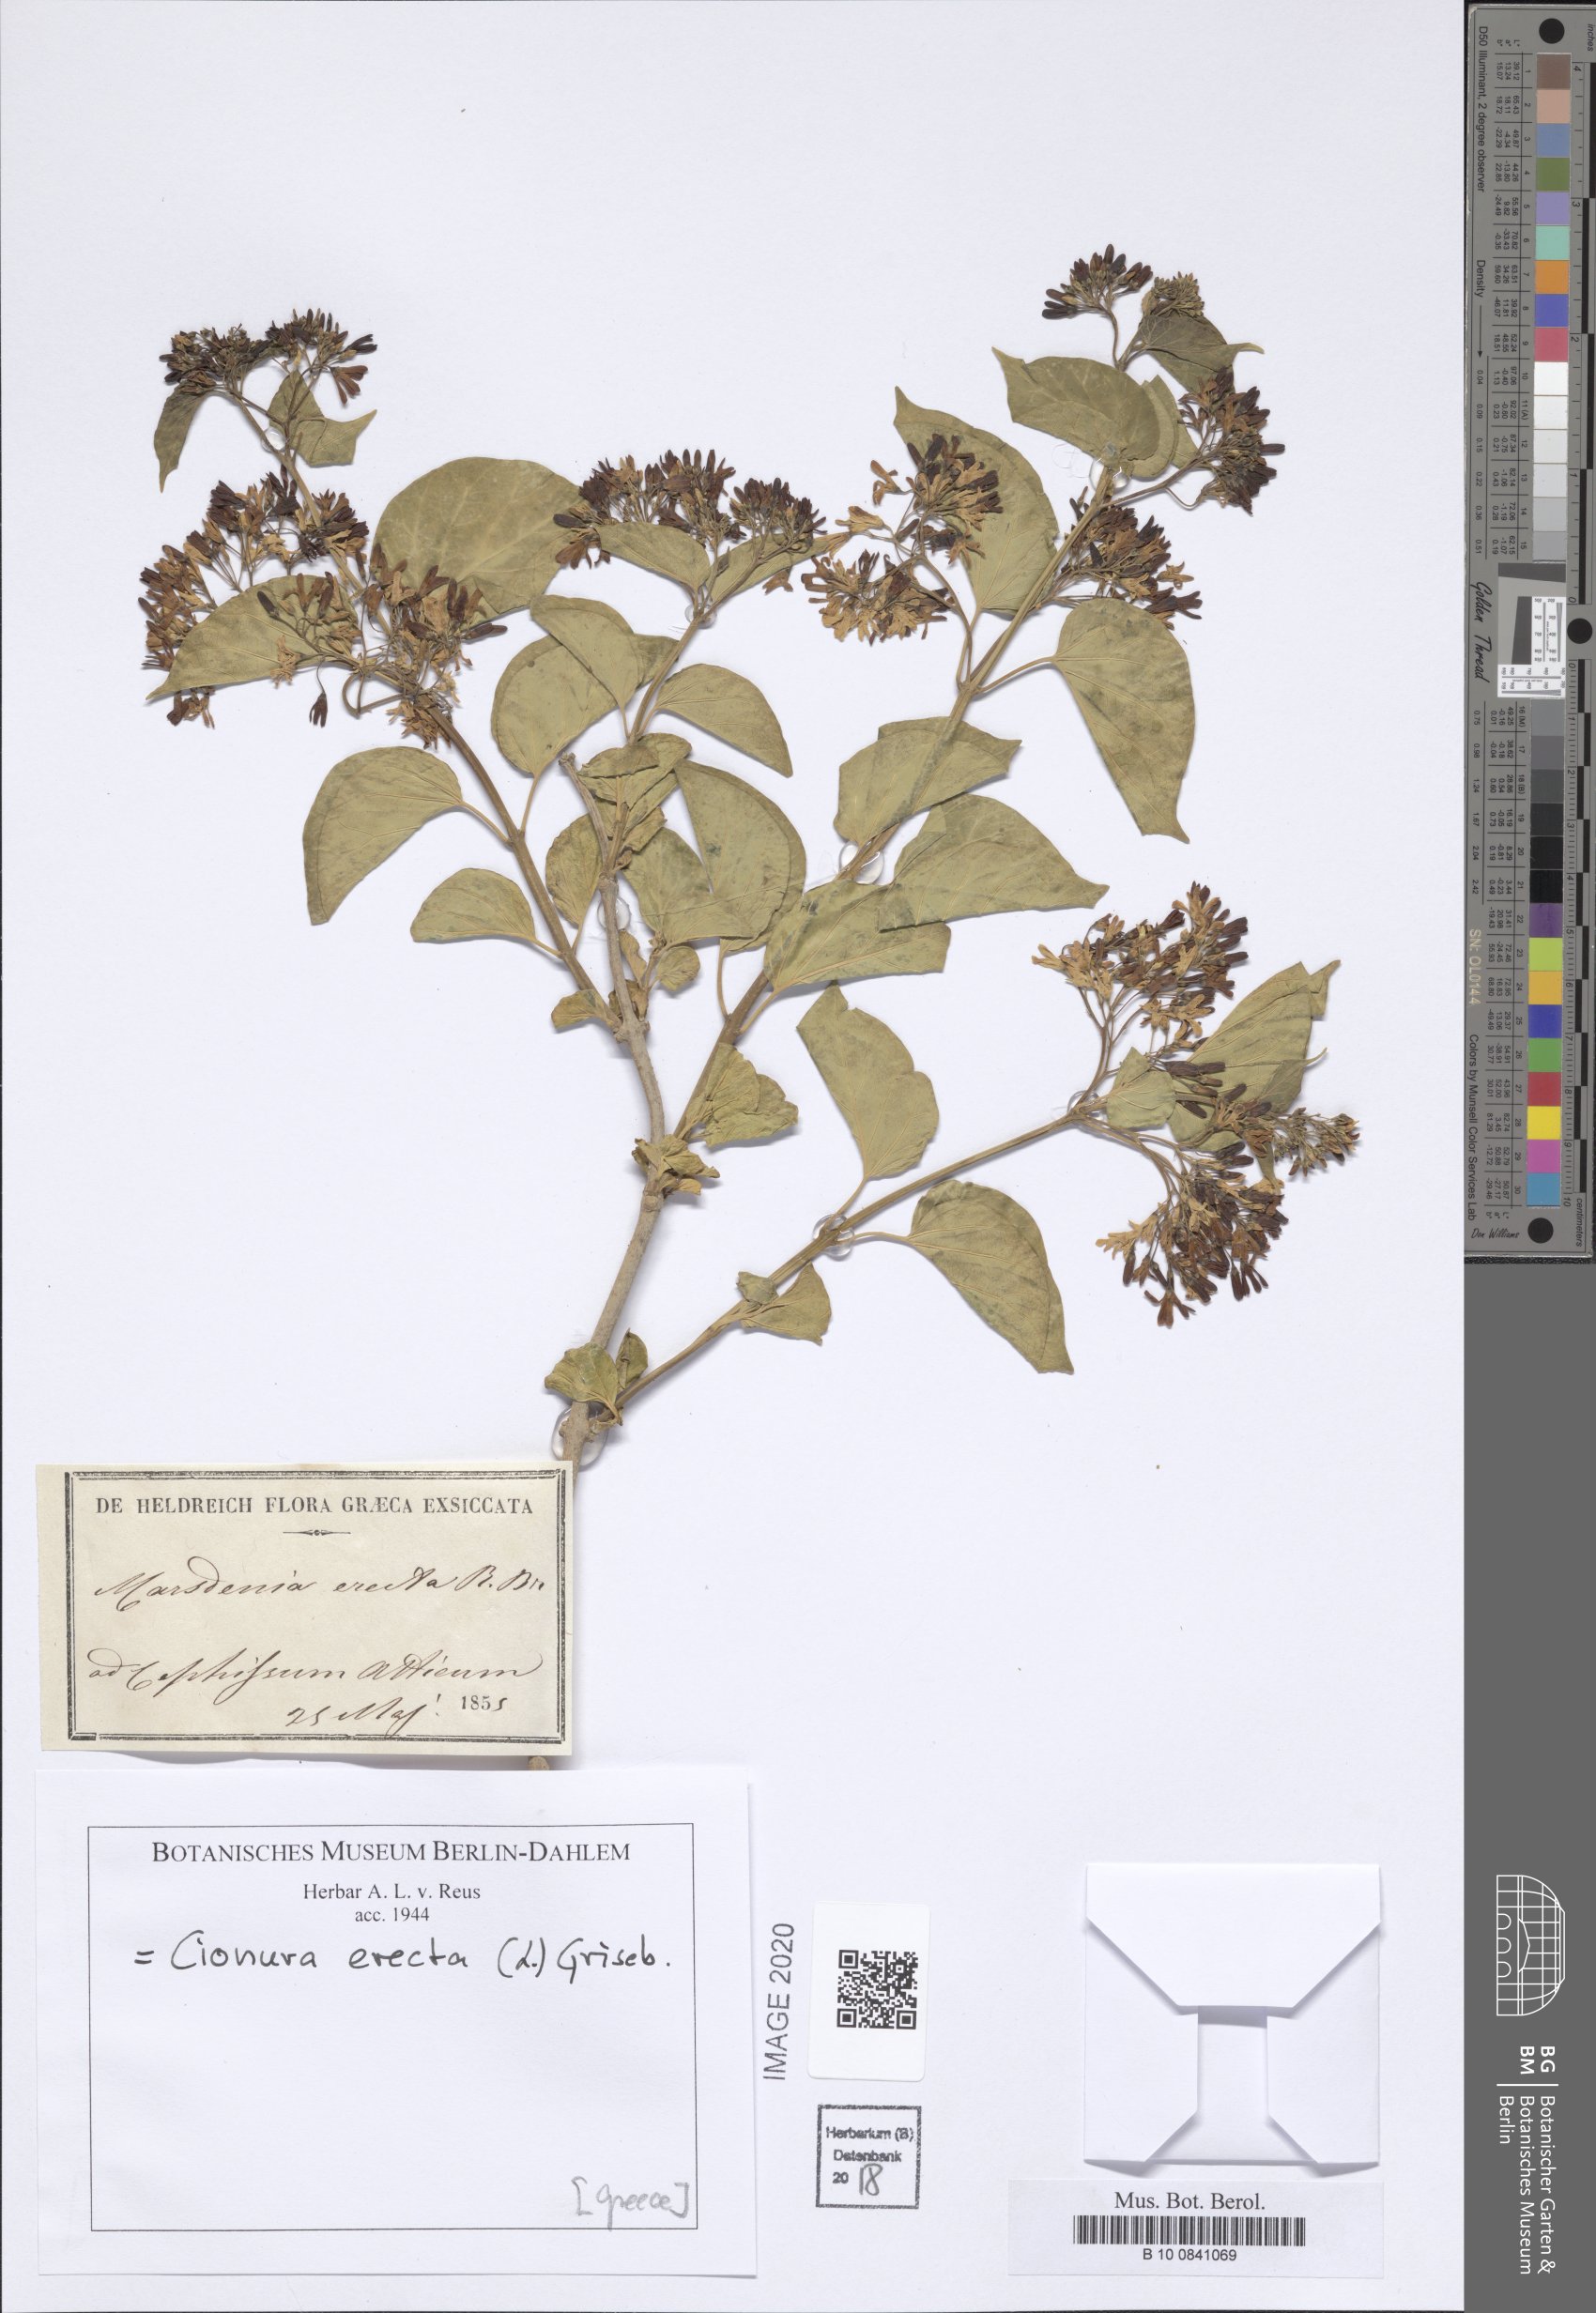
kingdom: Plantae
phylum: Tracheophyta
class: Magnoliopsida
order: Gentianales
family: Apocynaceae
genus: Cionura
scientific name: Cionura erecta
